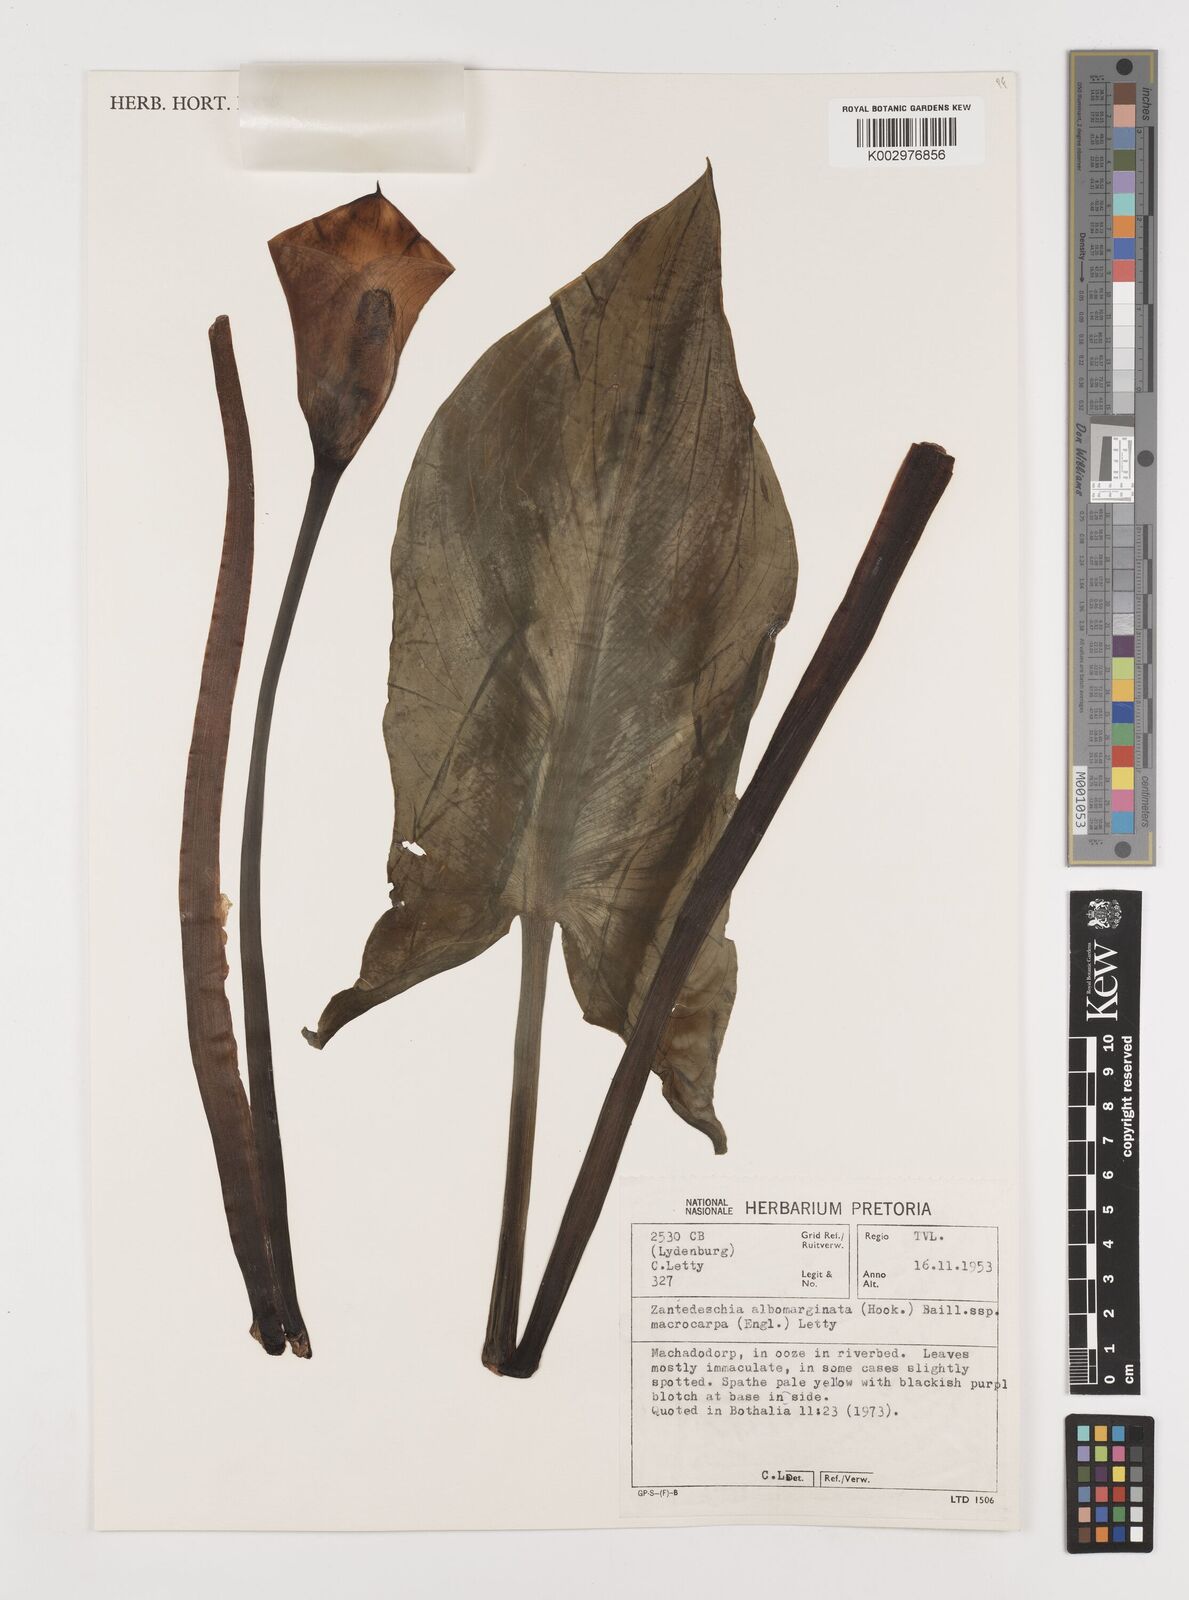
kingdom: Plantae
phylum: Tracheophyta
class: Liliopsida
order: Alismatales
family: Araceae
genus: Zantedeschia
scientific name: Zantedeschia albomaculata
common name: Spotted calla lily
